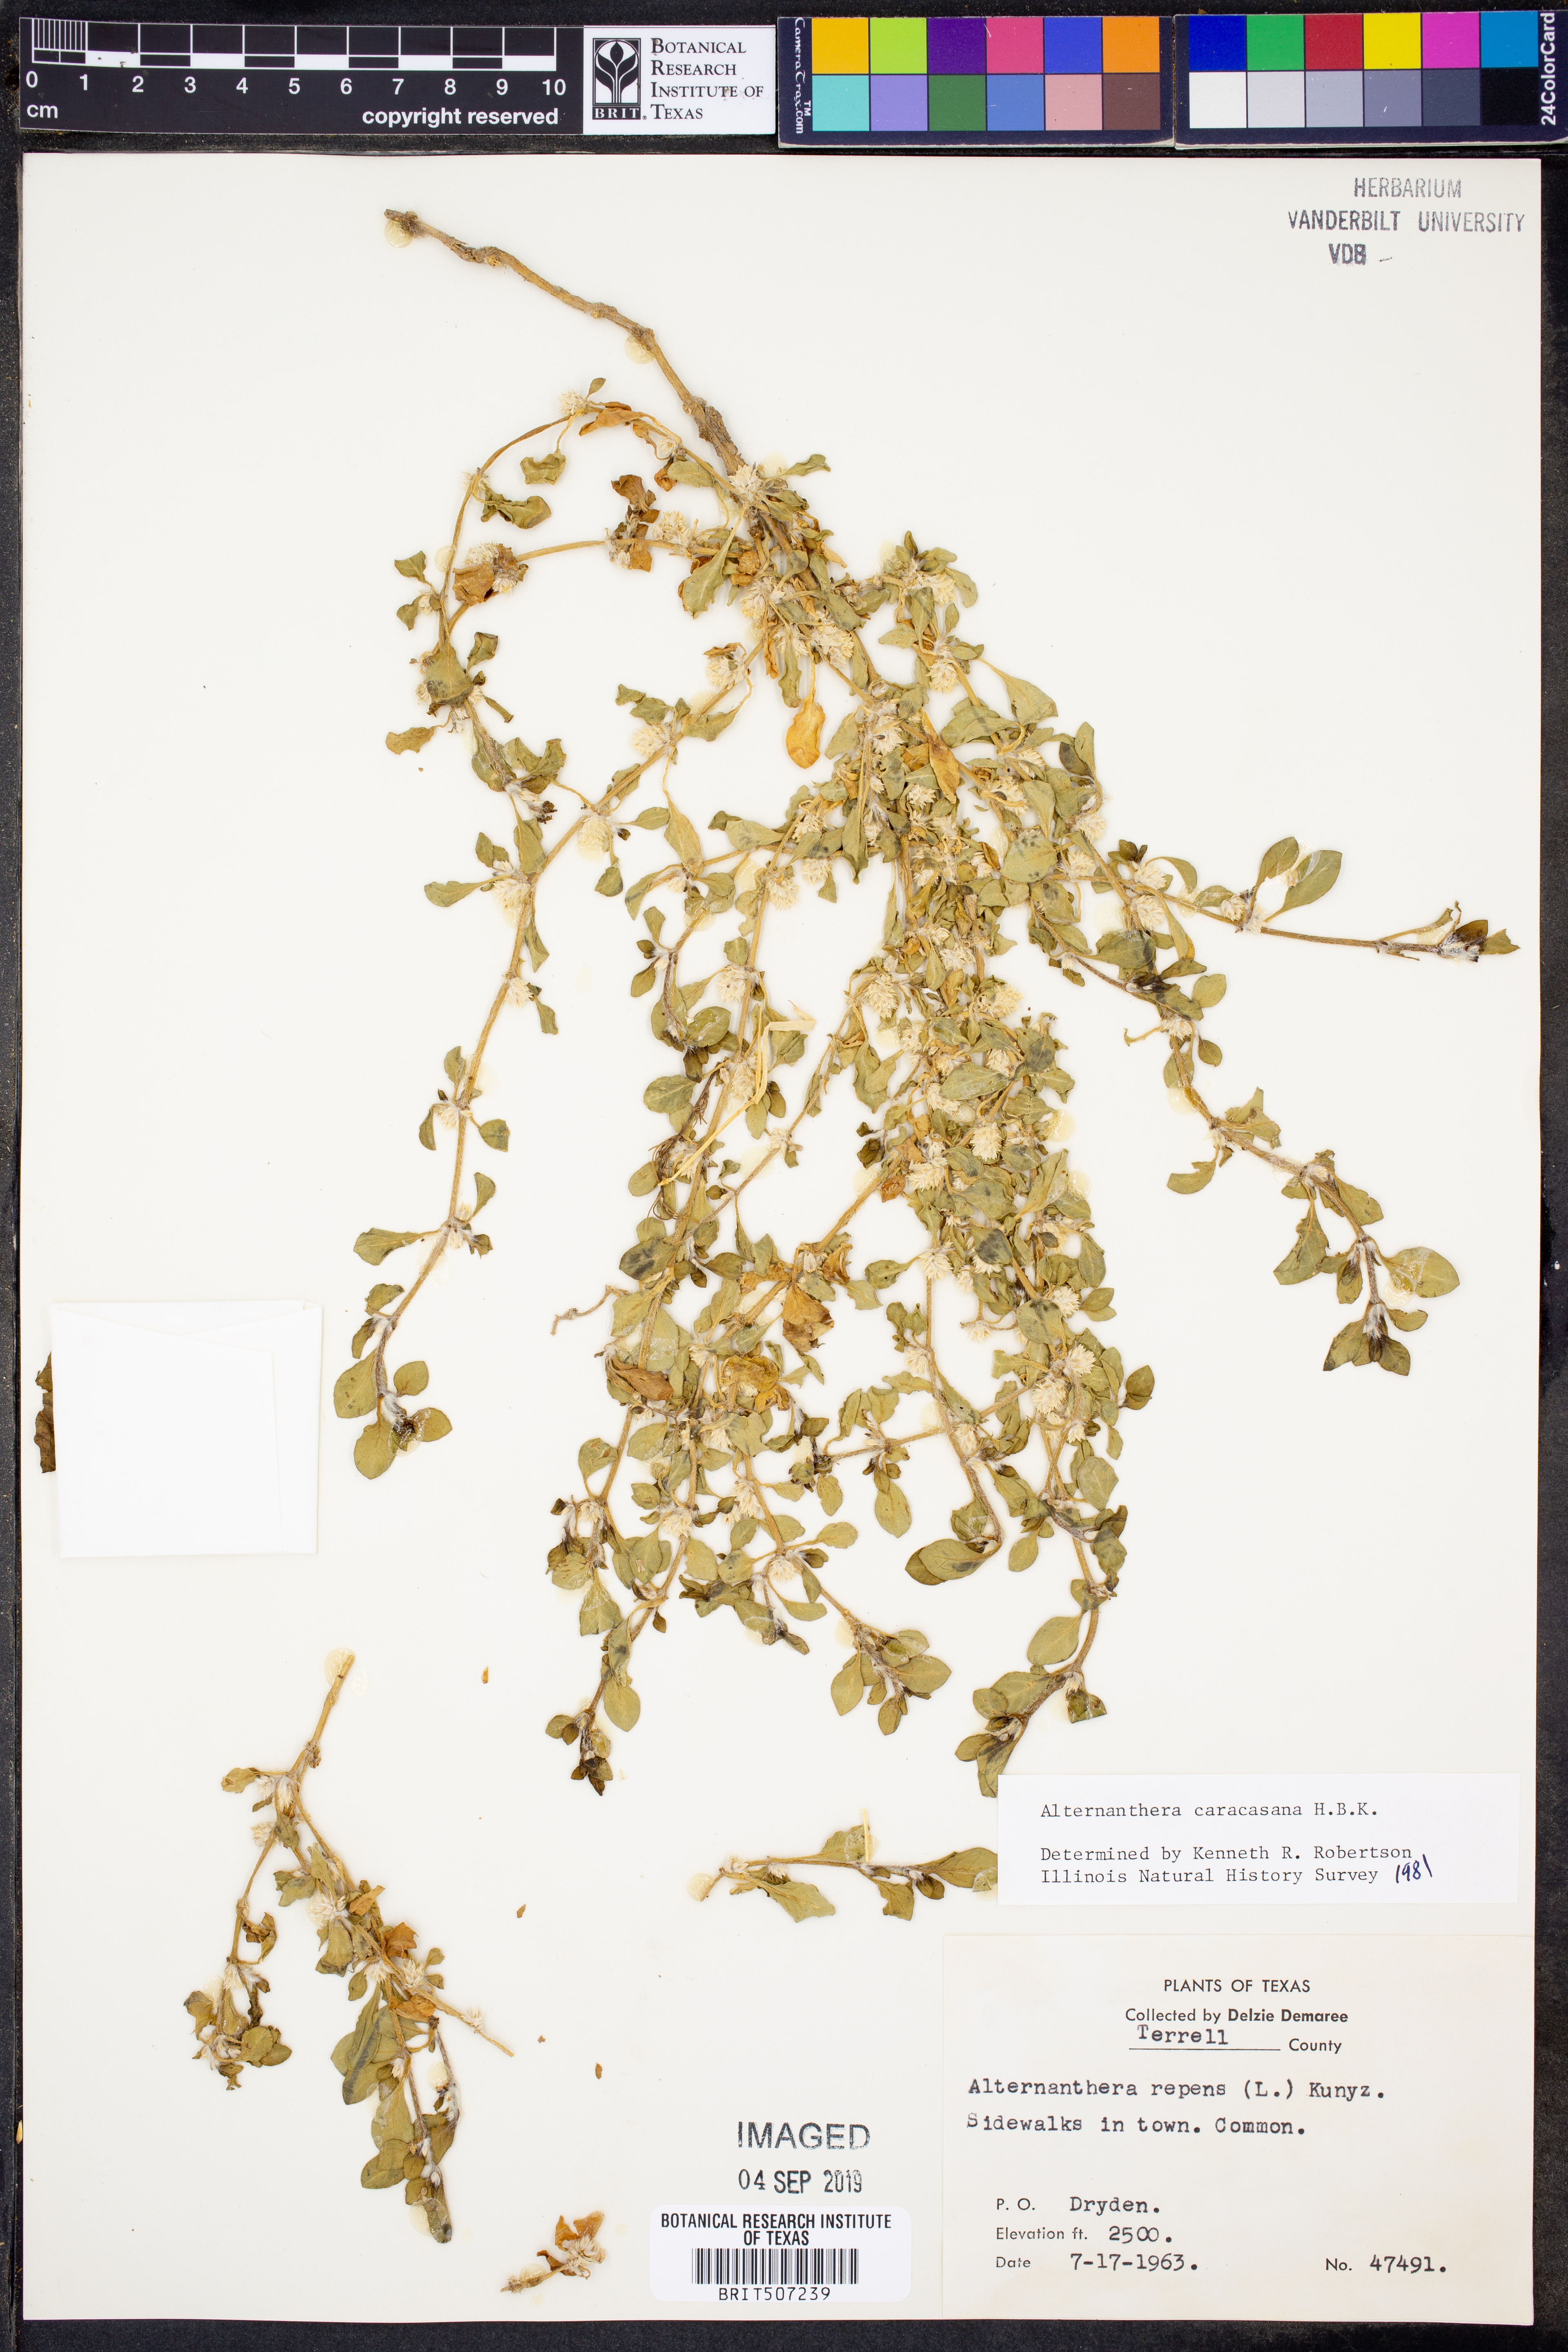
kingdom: Plantae
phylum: Tracheophyta
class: Magnoliopsida
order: Caryophyllales
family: Amaranthaceae
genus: Alternanthera
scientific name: Alternanthera caracasana
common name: Washerwoman
